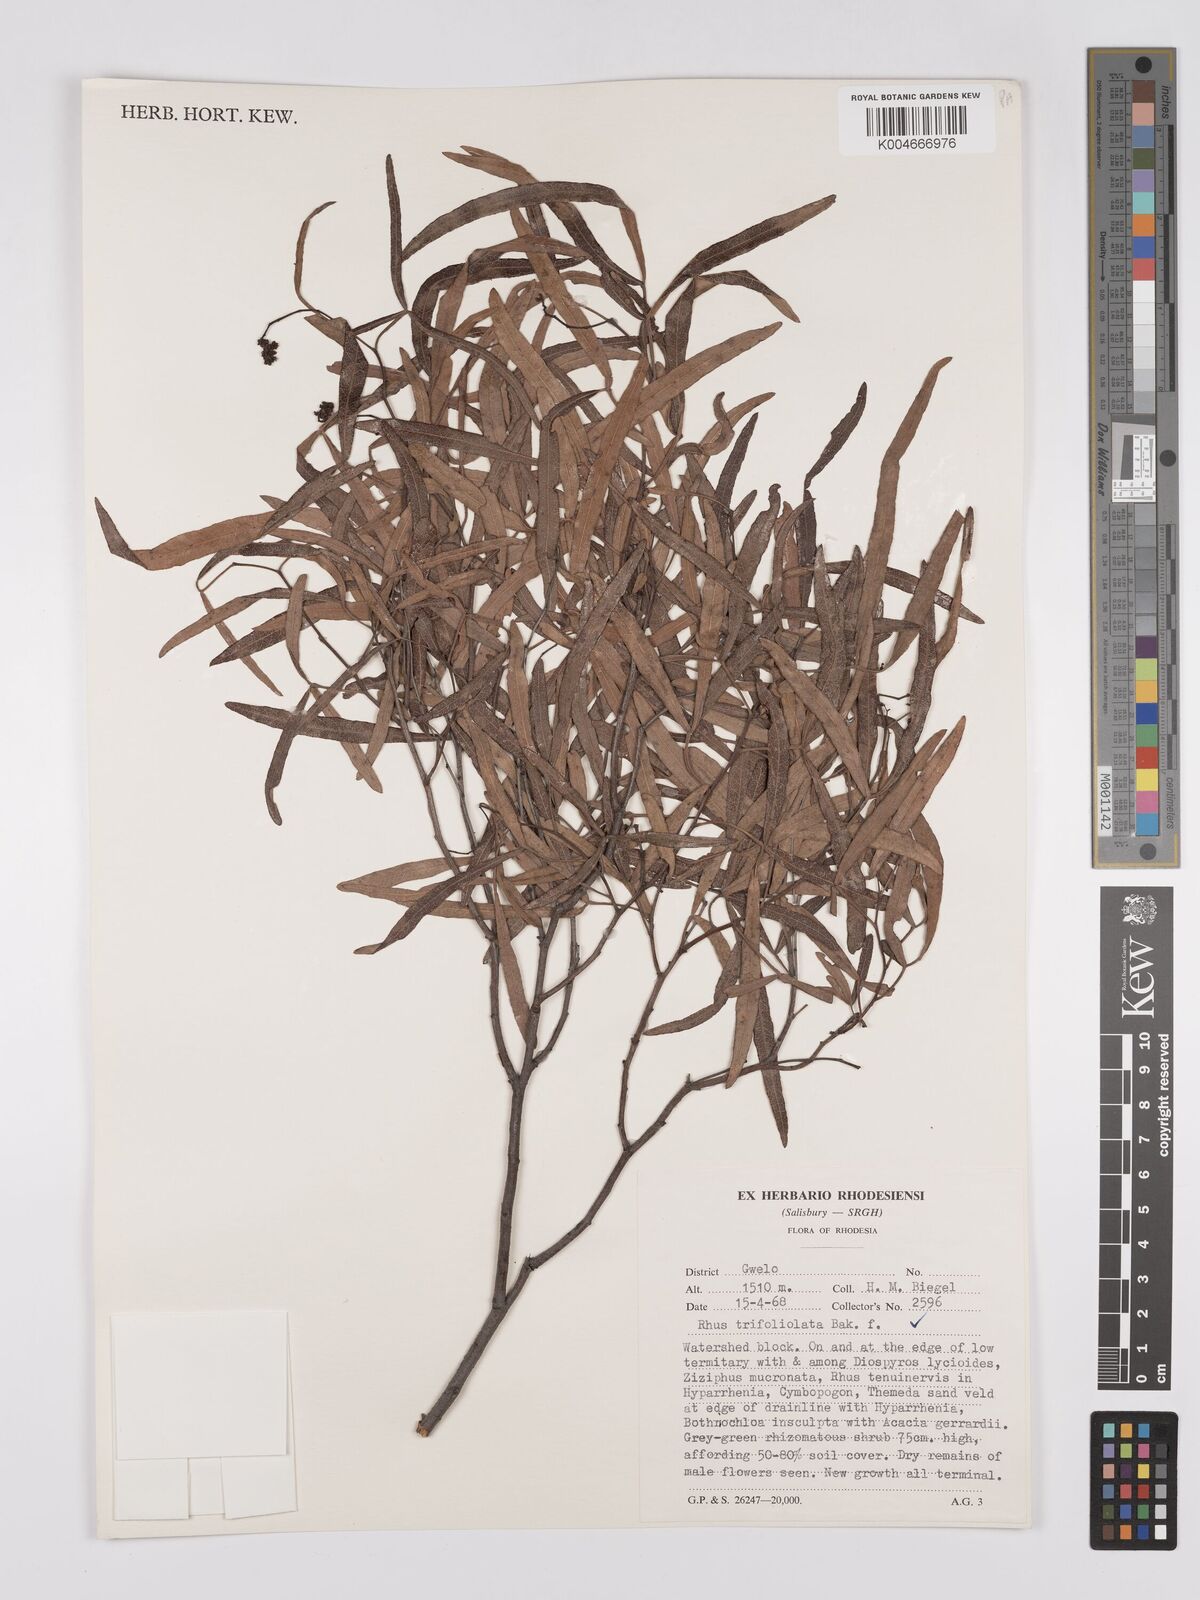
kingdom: Plantae
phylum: Tracheophyta
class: Magnoliopsida
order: Sapindales
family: Anacardiaceae
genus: Searsia
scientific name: Searsia magalismontana
